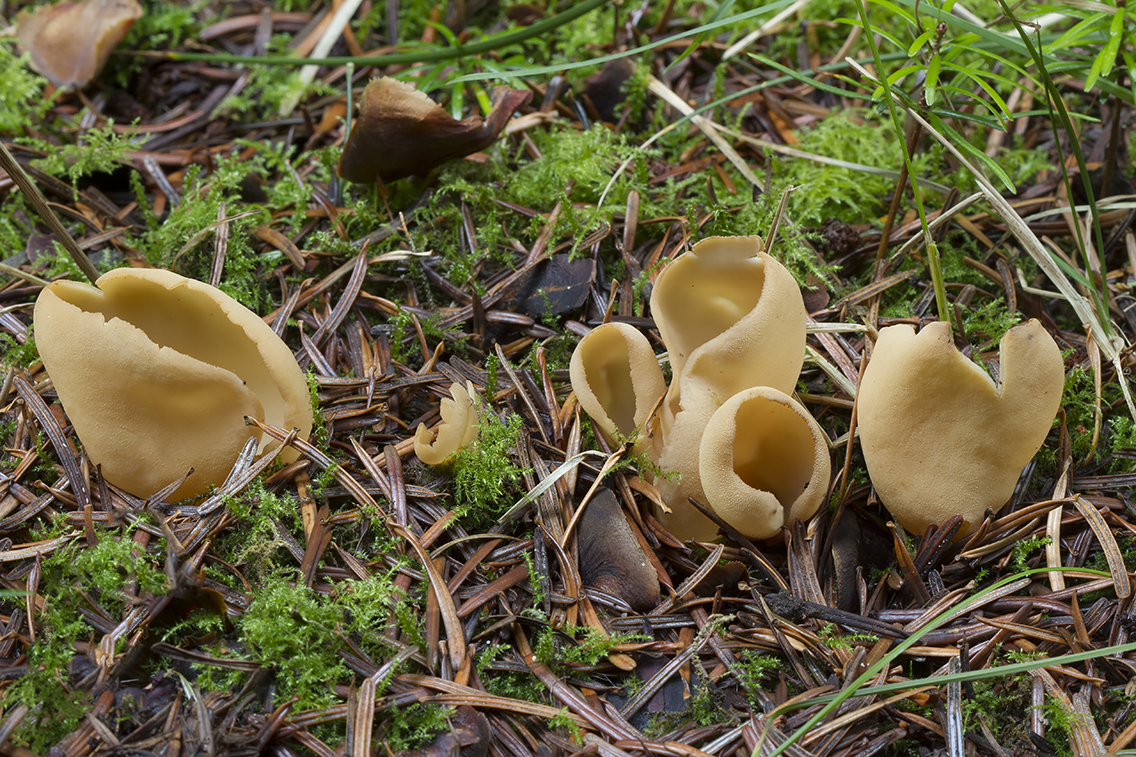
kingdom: Fungi
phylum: Ascomycota
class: Pezizomycetes
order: Pezizales
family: Otideaceae
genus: Otidea
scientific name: Otidea leporina
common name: hare-ørebæger
